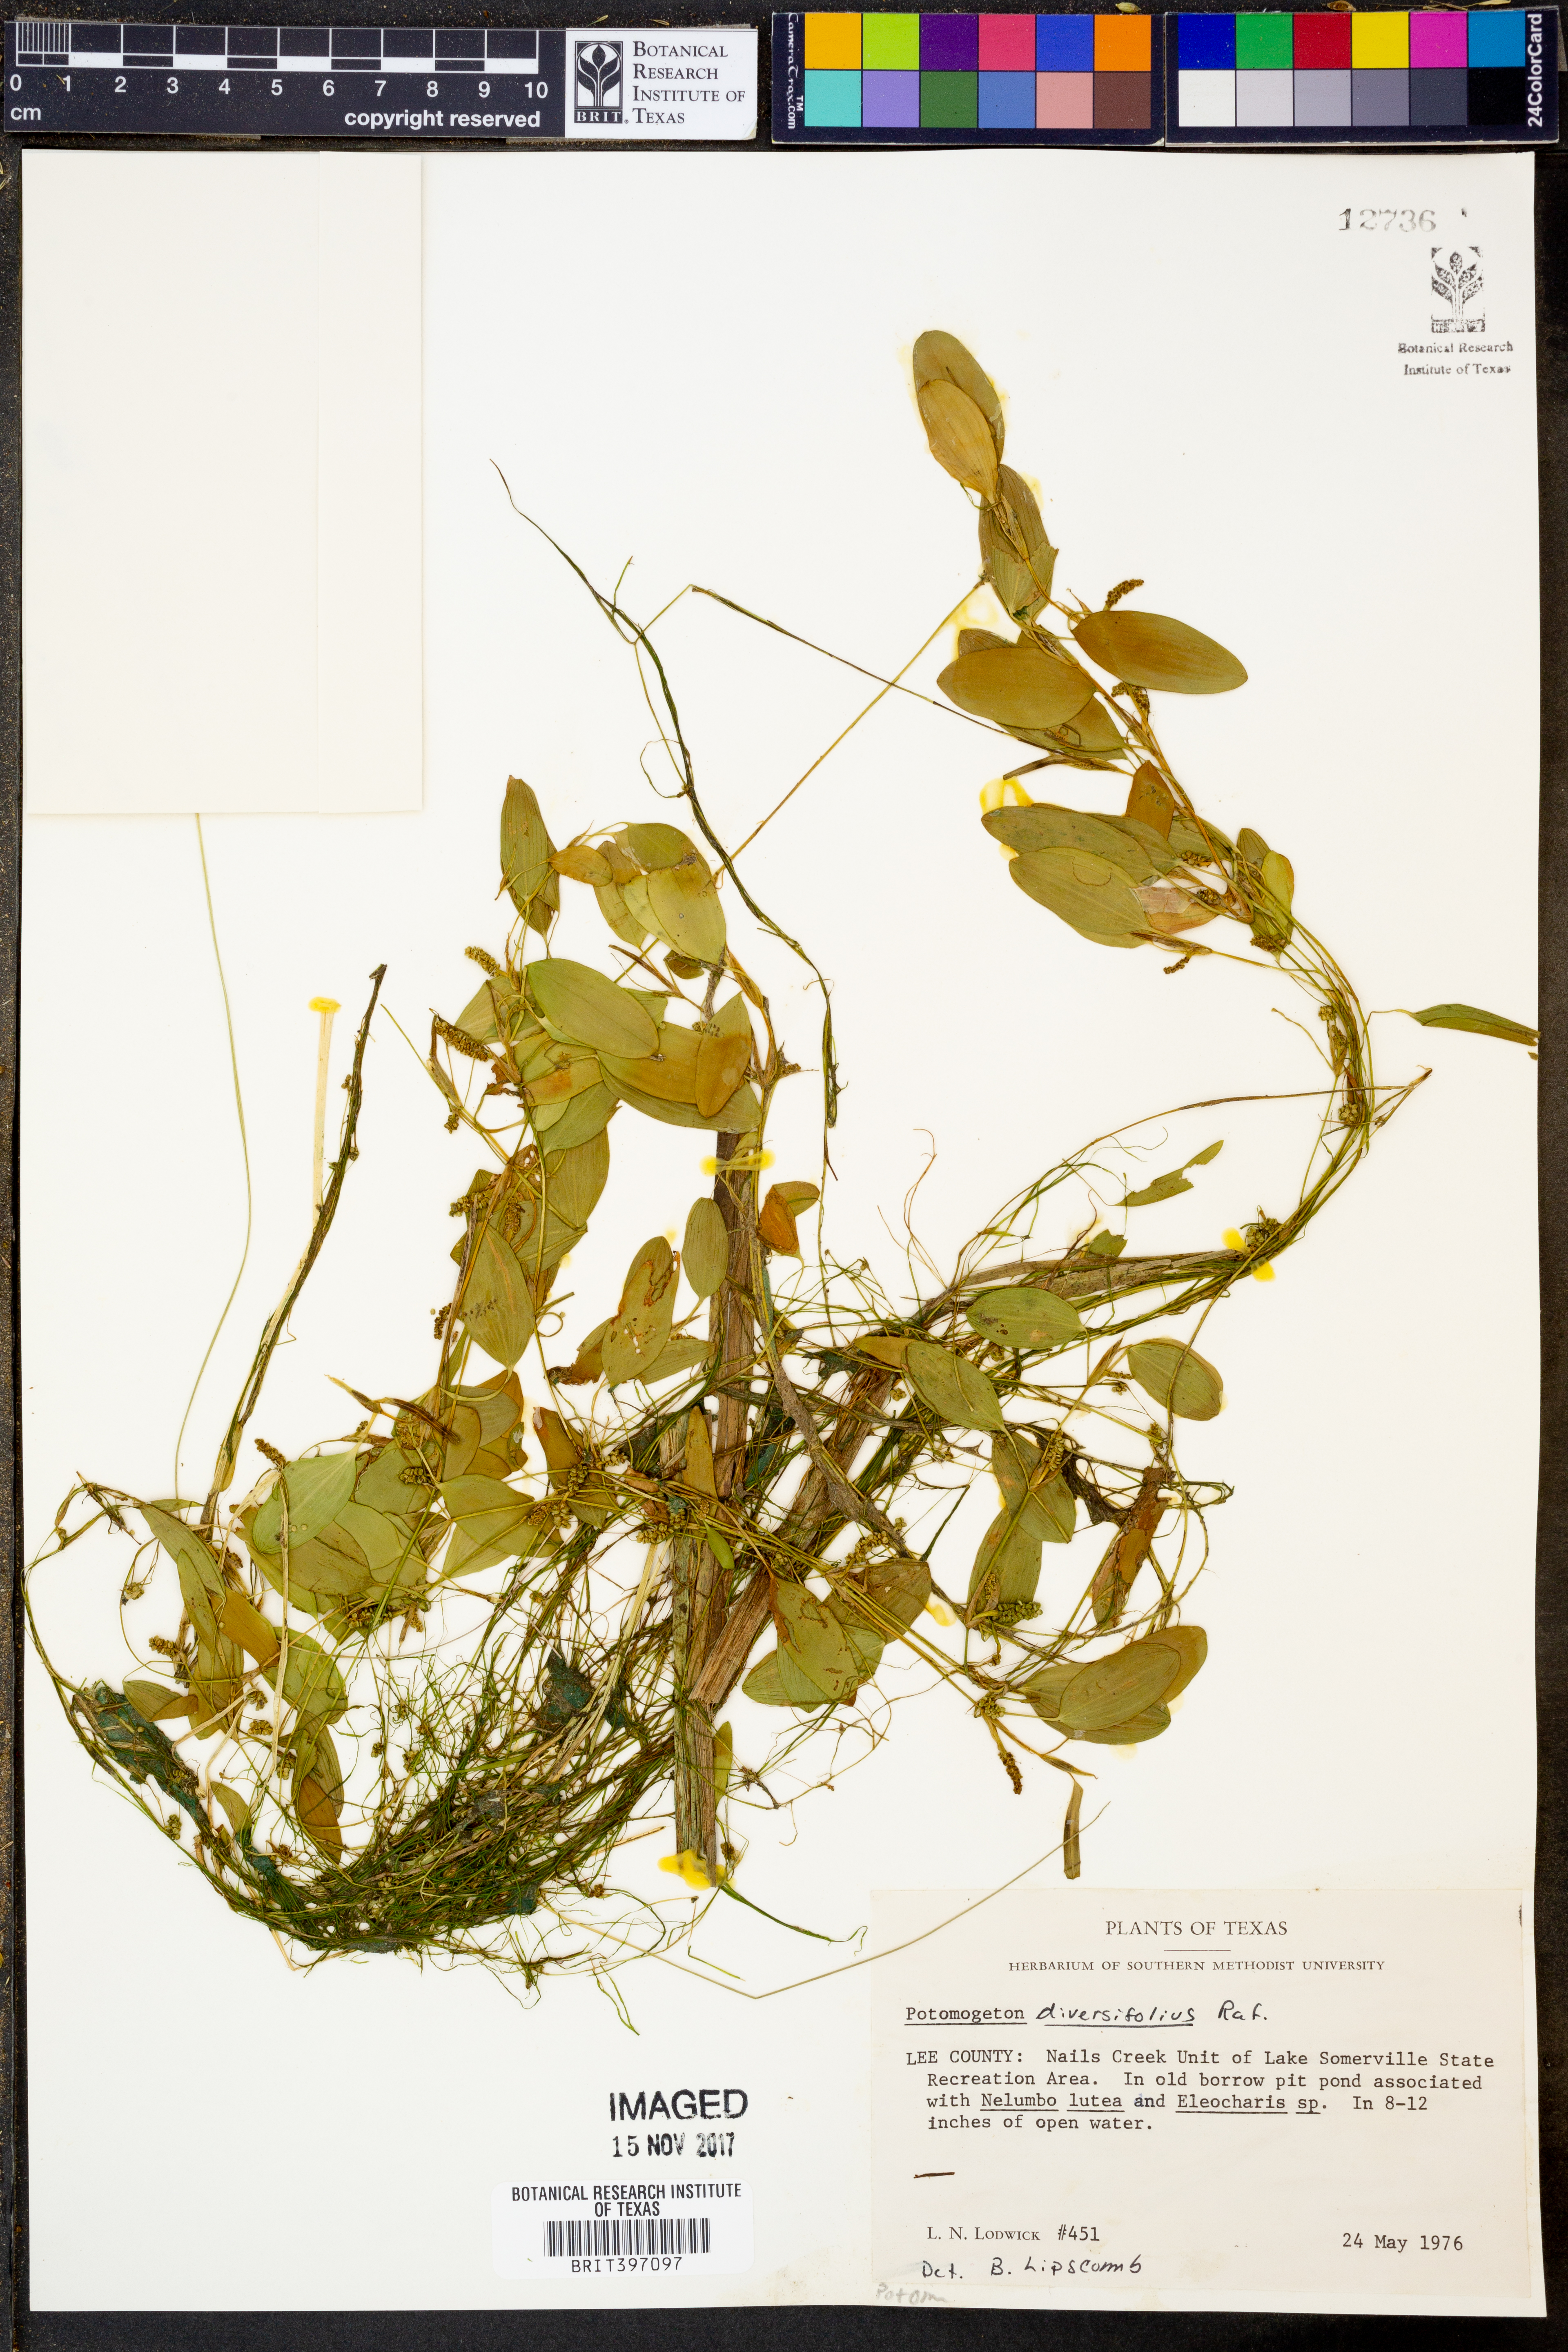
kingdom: Plantae
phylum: Tracheophyta
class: Liliopsida
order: Alismatales
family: Potamogetonaceae
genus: Potamogeton
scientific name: Potamogeton diversifolius
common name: Water-thread pondweed
